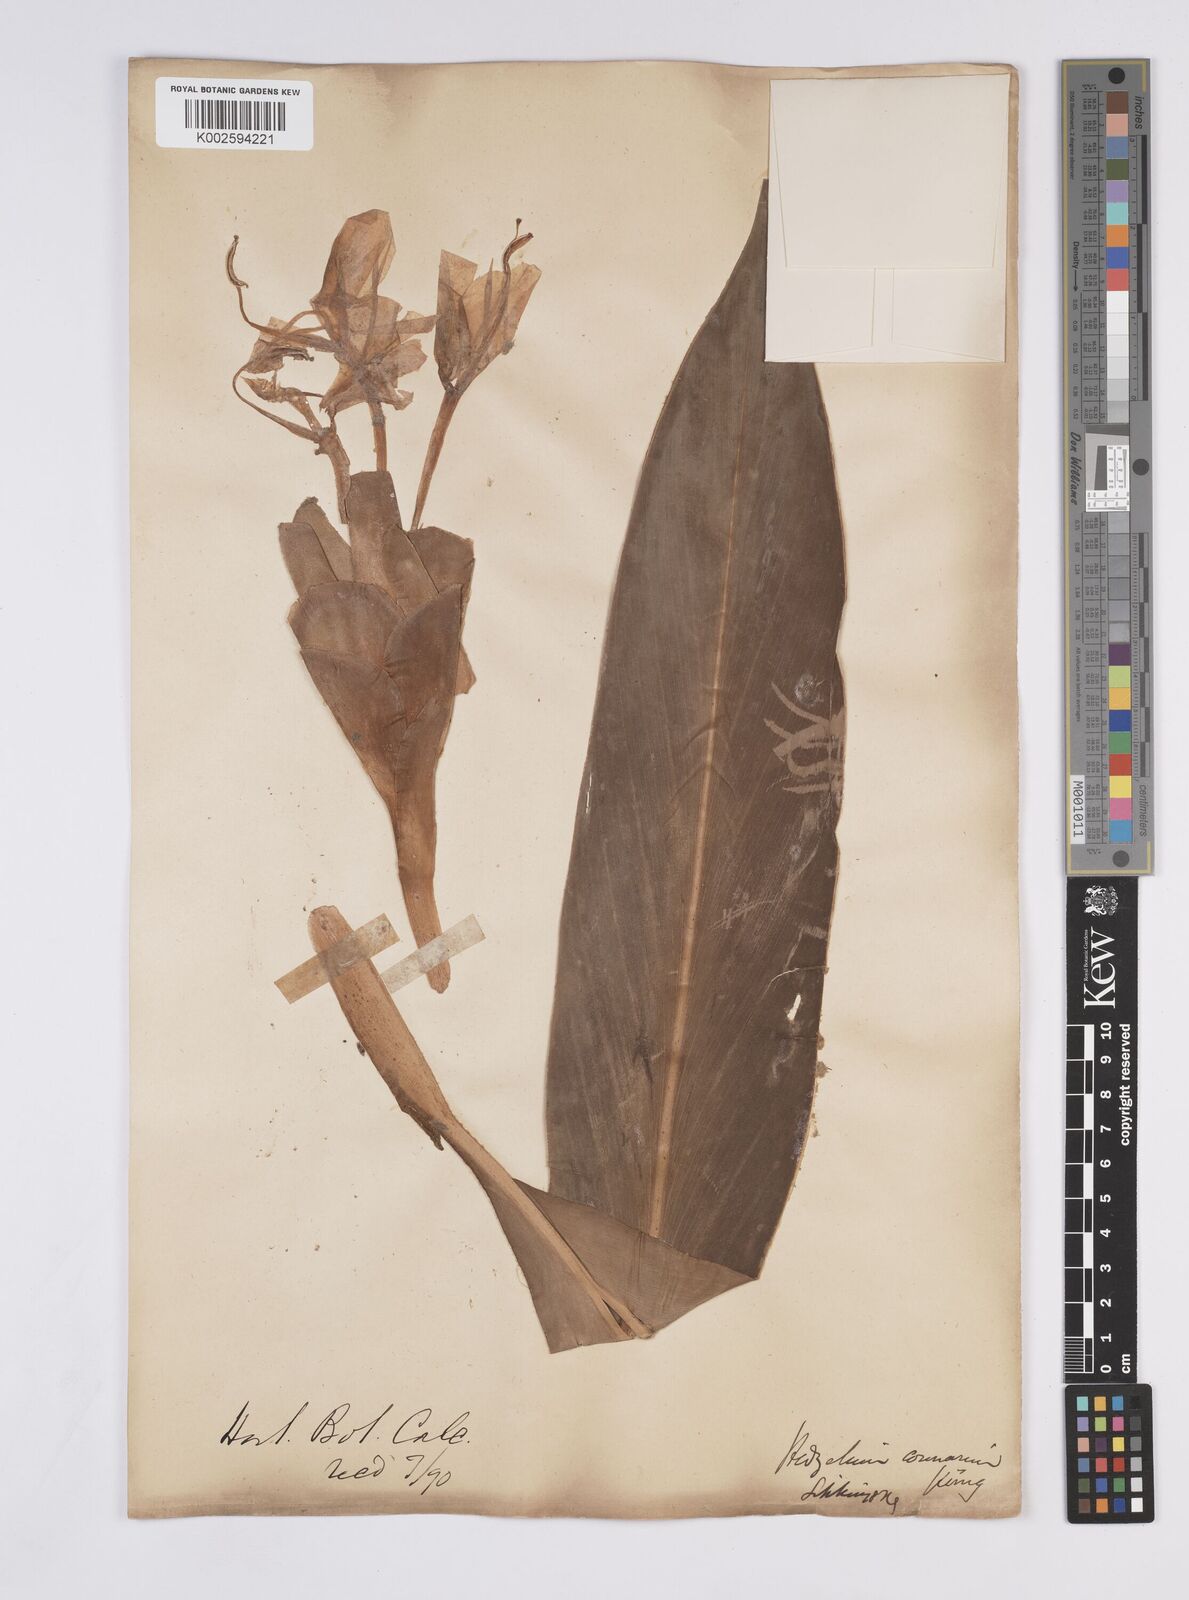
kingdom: Plantae
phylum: Tracheophyta
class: Liliopsida
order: Zingiberales
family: Zingiberaceae
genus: Hedychium
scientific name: Hedychium coronarium
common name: White garland-lily
